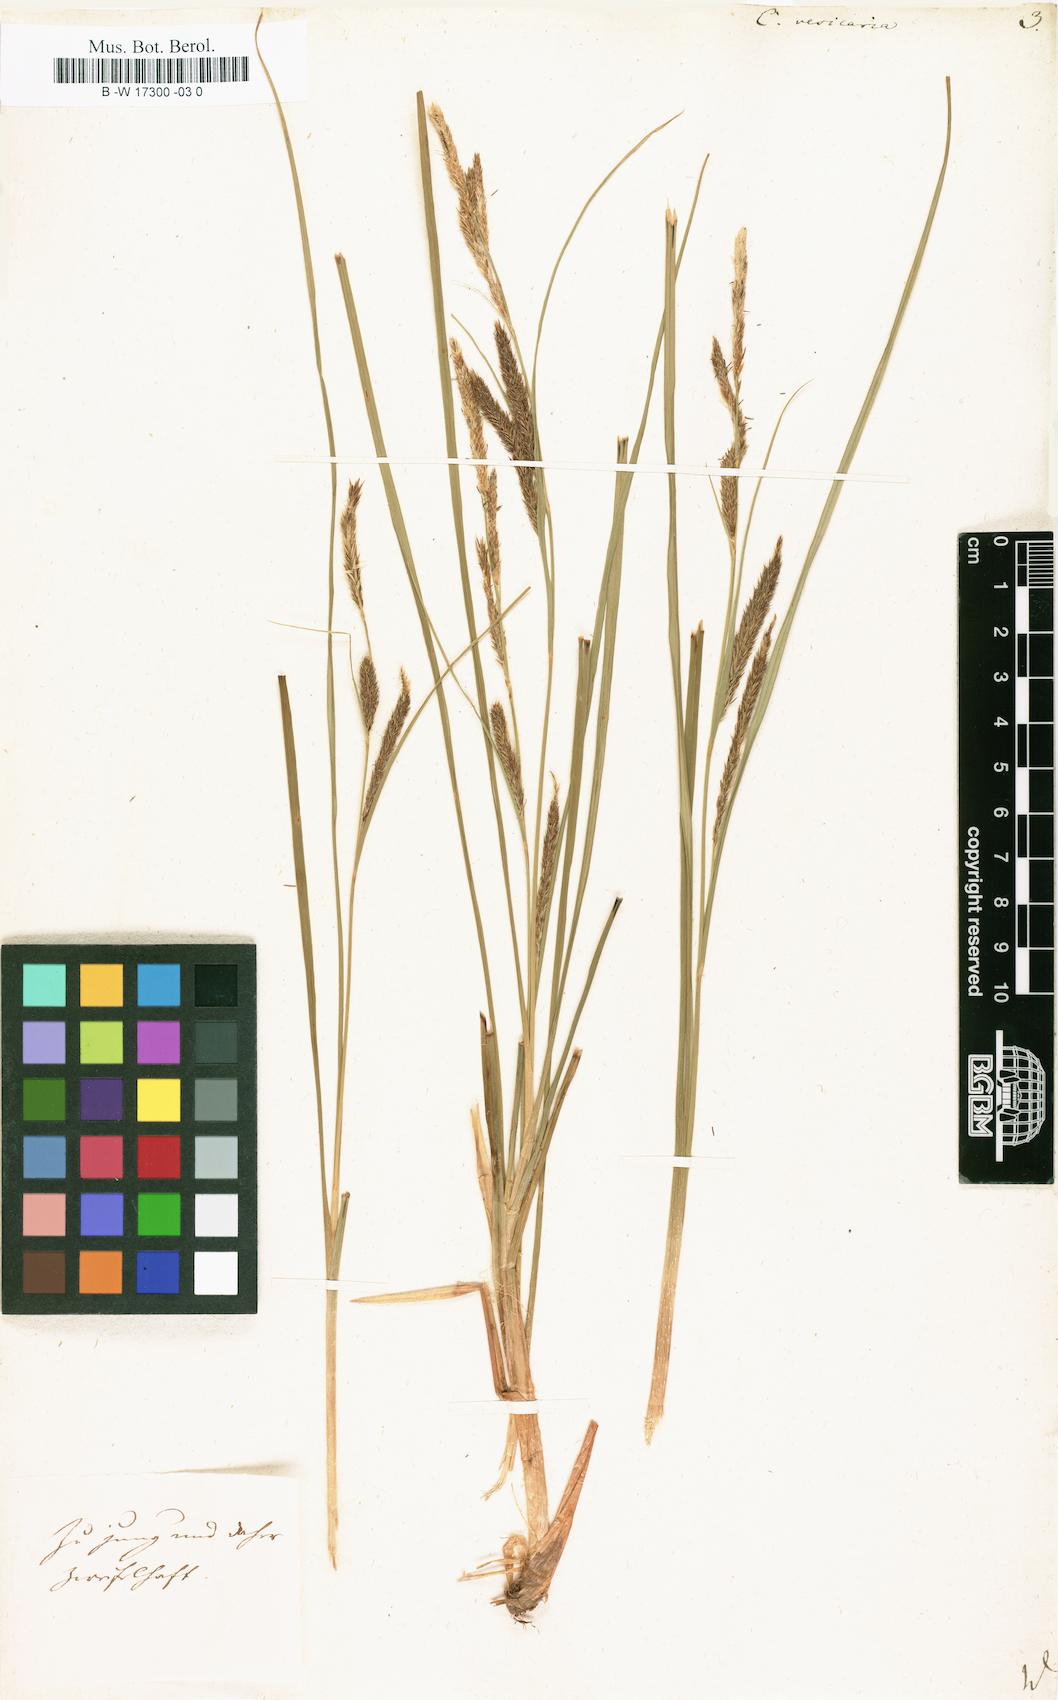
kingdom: Plantae
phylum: Tracheophyta
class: Liliopsida
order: Poales
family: Cyperaceae
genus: Carex
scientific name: Carex vesicaria
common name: Bladder-sedge
